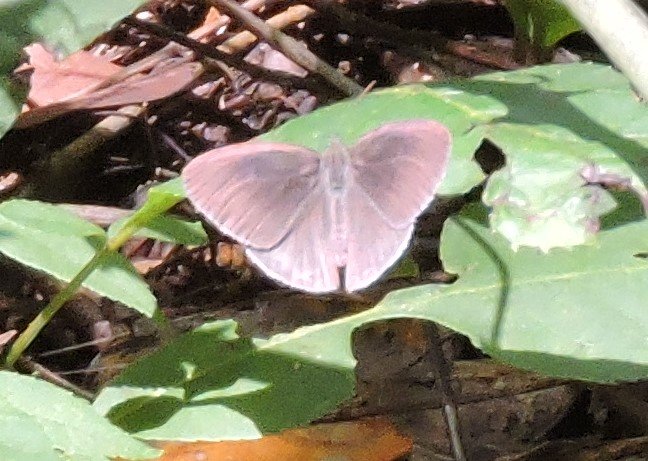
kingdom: Animalia
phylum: Arthropoda
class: Insecta
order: Lepidoptera
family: Nymphalidae
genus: Hermeuptychia
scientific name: Hermeuptychia hermes
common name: Carolina Satyr
